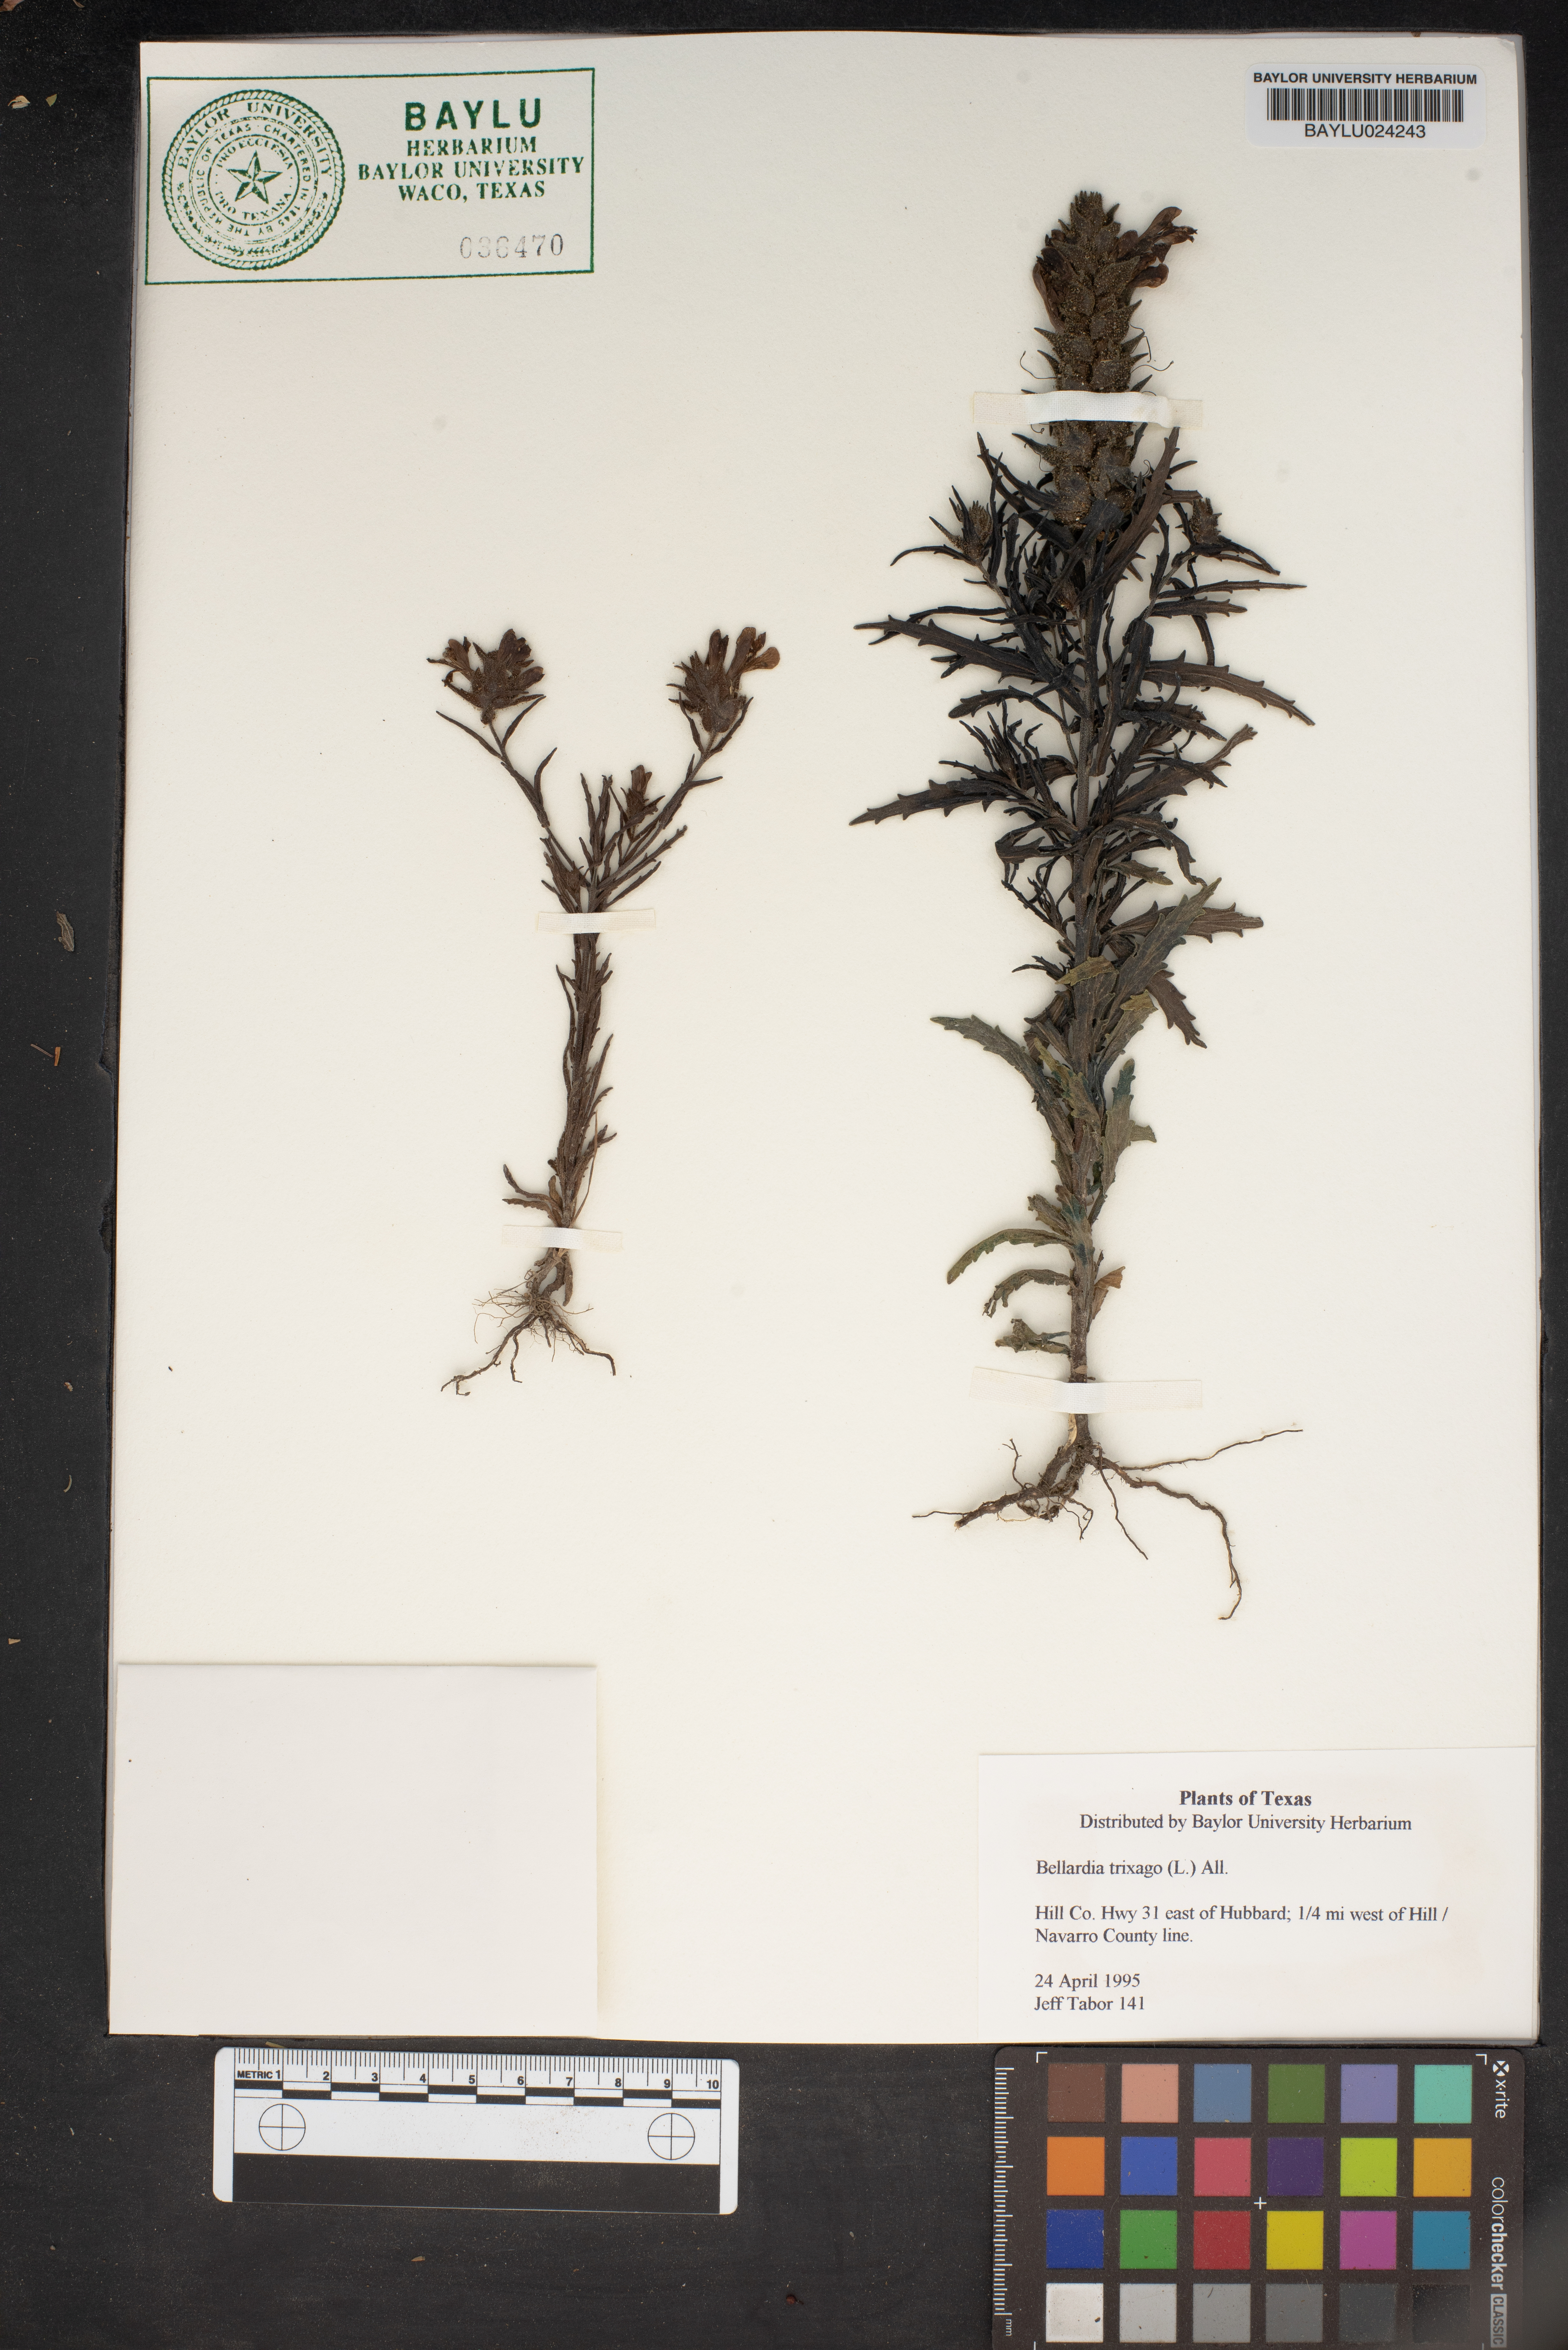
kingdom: Plantae
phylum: Tracheophyta
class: Magnoliopsida
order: Lamiales
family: Orobanchaceae
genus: Bellardia
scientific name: Bellardia trixago
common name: Mediterranean lineseed
